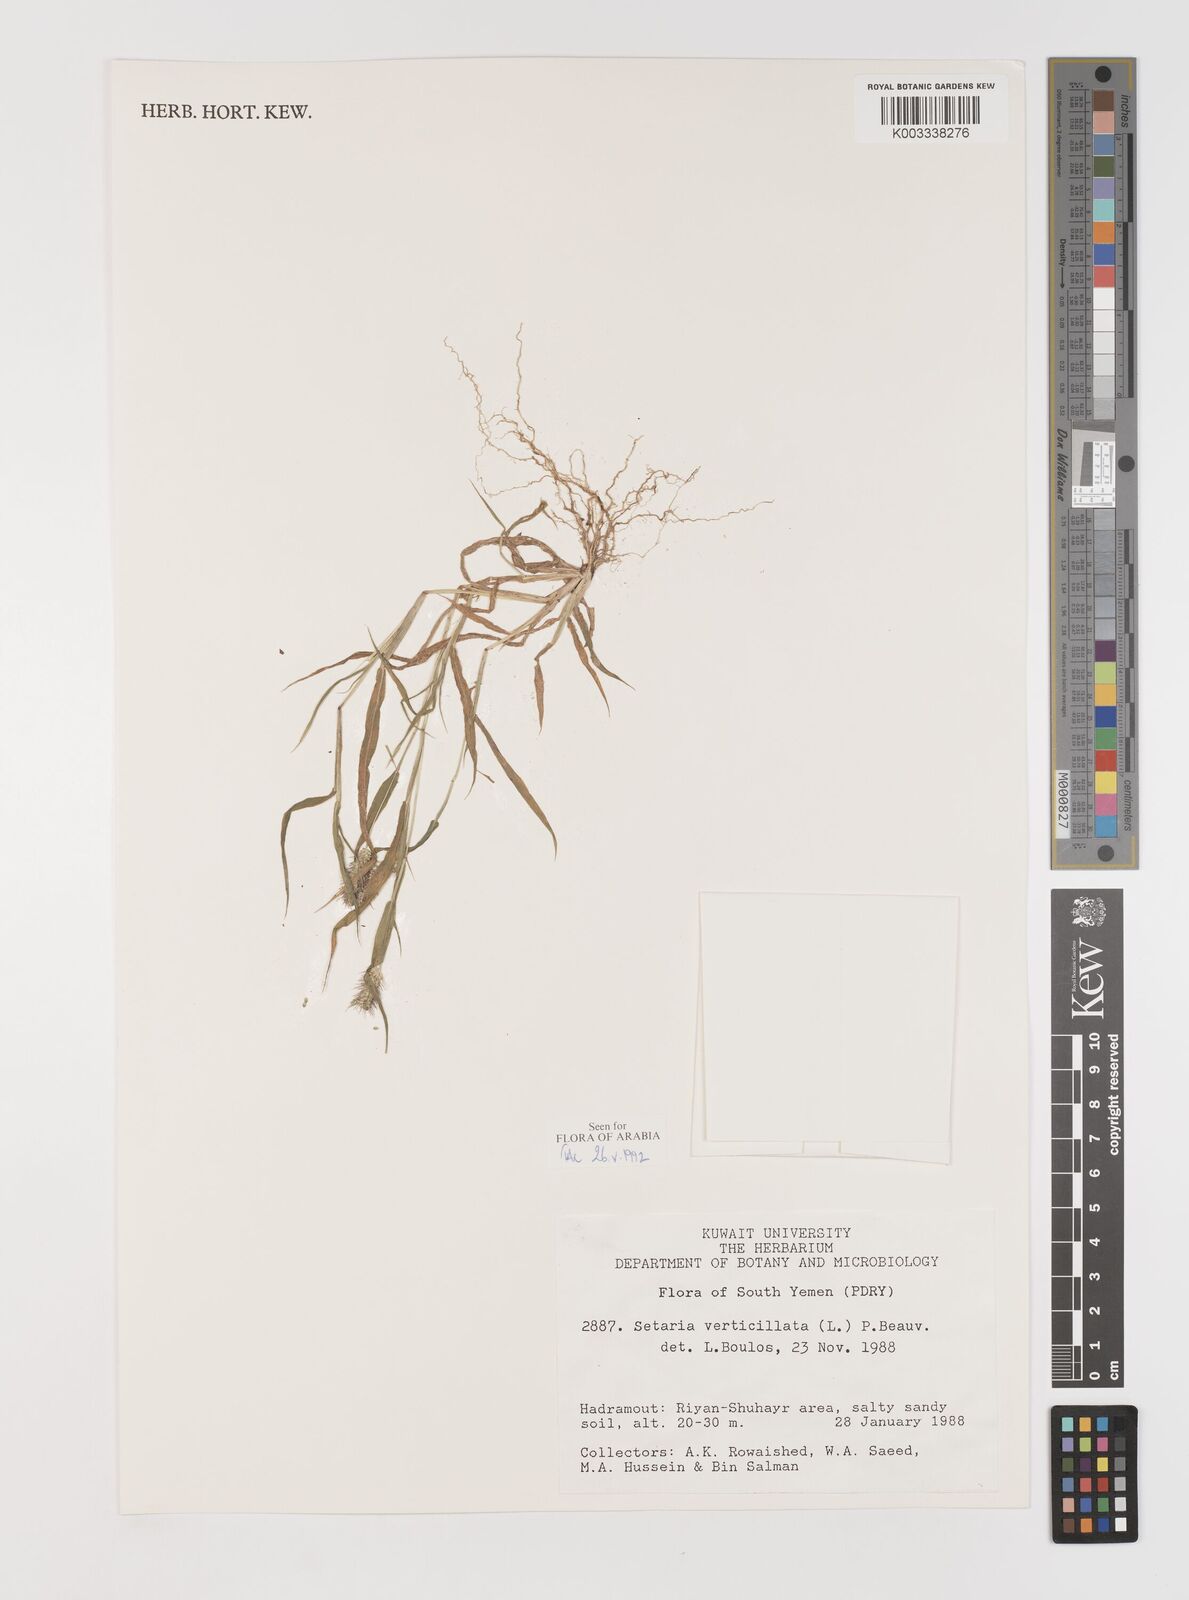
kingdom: Plantae
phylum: Tracheophyta
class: Liliopsida
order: Poales
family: Poaceae
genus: Setaria
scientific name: Setaria verticillata
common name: Hooked bristlegrass
